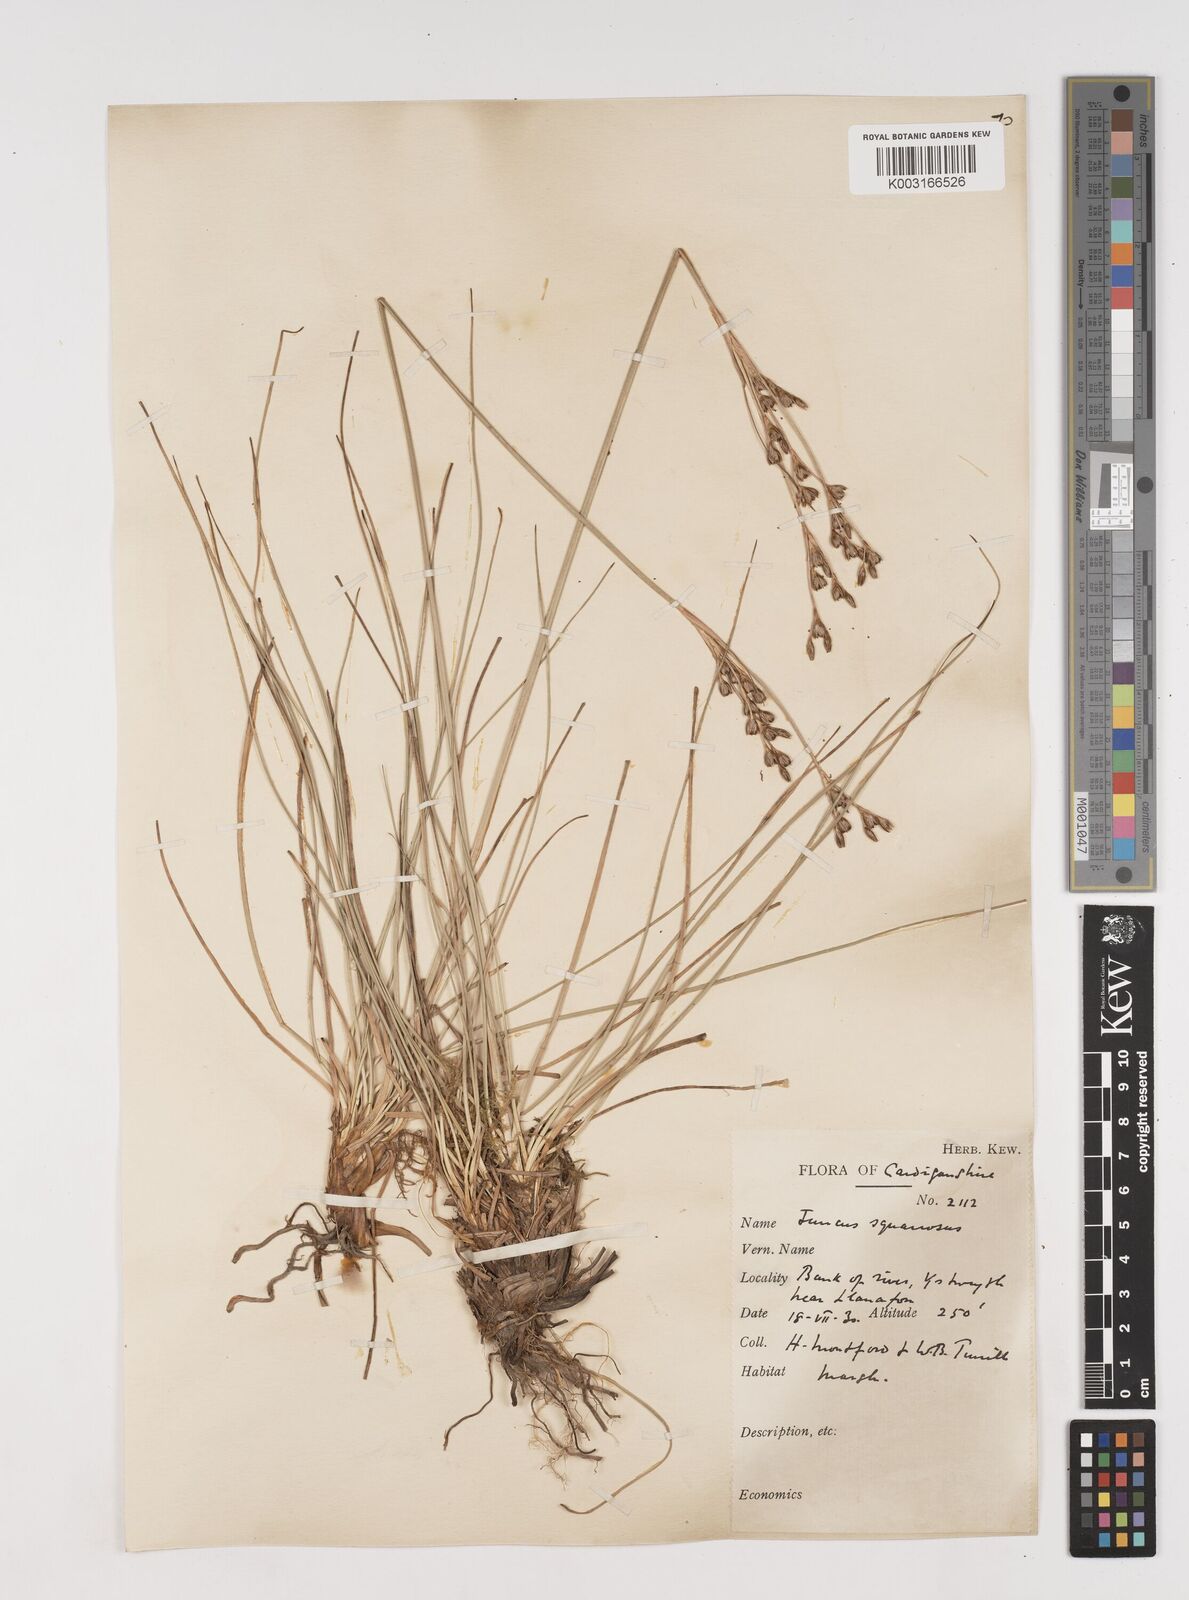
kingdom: Plantae
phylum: Tracheophyta
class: Liliopsida
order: Poales
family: Juncaceae
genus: Juncus
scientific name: Juncus squarrosus
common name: Heath rush
